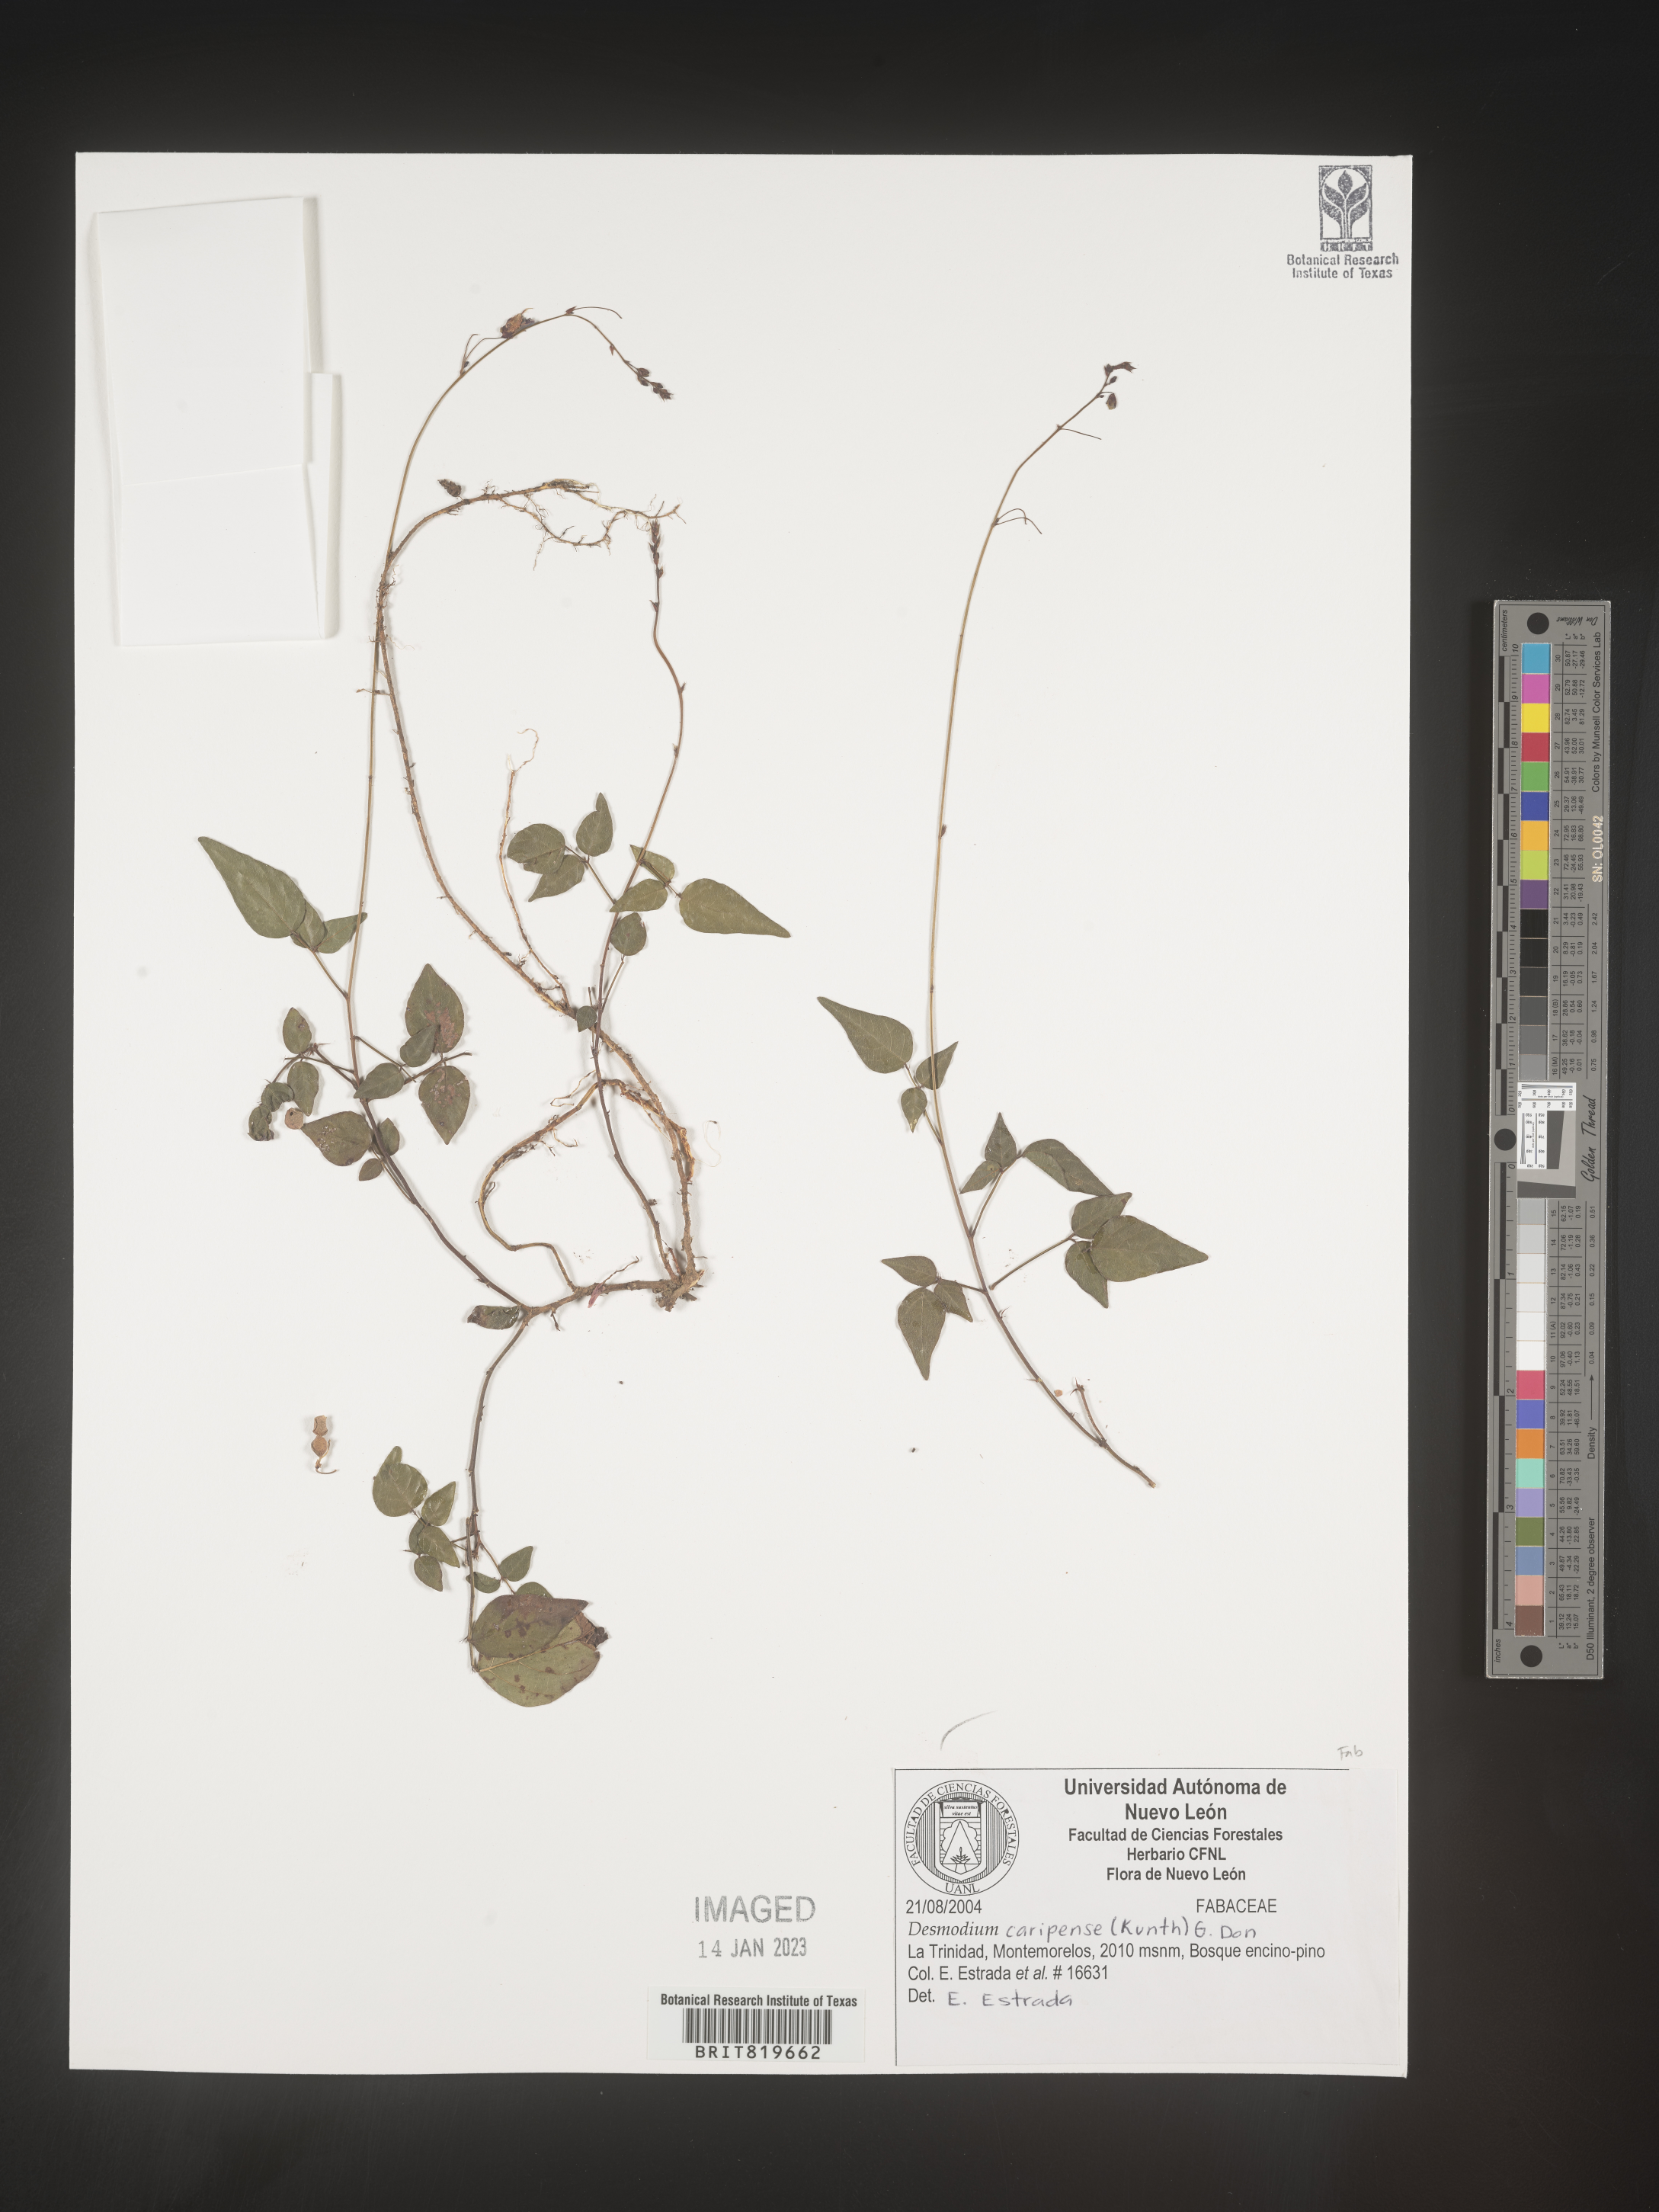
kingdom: Plantae
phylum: Tracheophyta
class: Magnoliopsida
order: Fabales
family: Fabaceae
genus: Desmodium
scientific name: Desmodium
